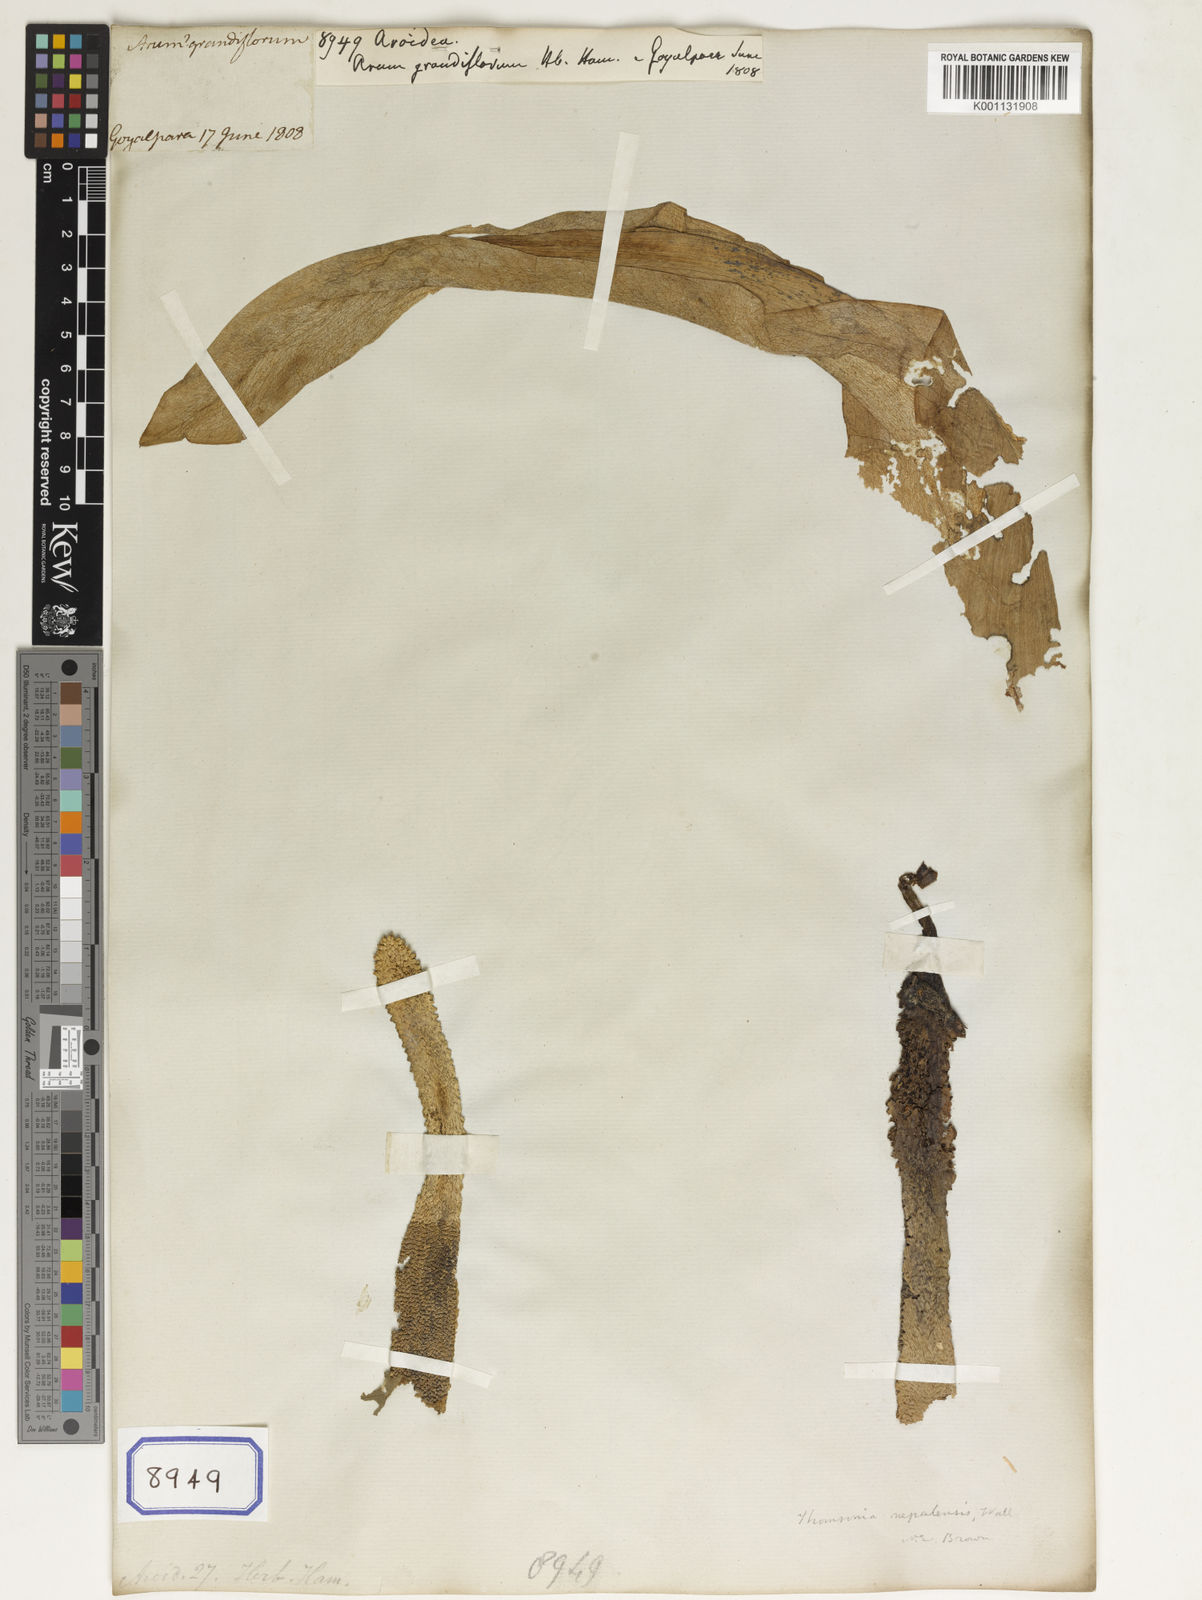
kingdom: Plantae
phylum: Tracheophyta
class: Liliopsida
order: Alismatales
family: Araceae
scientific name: Araceae
